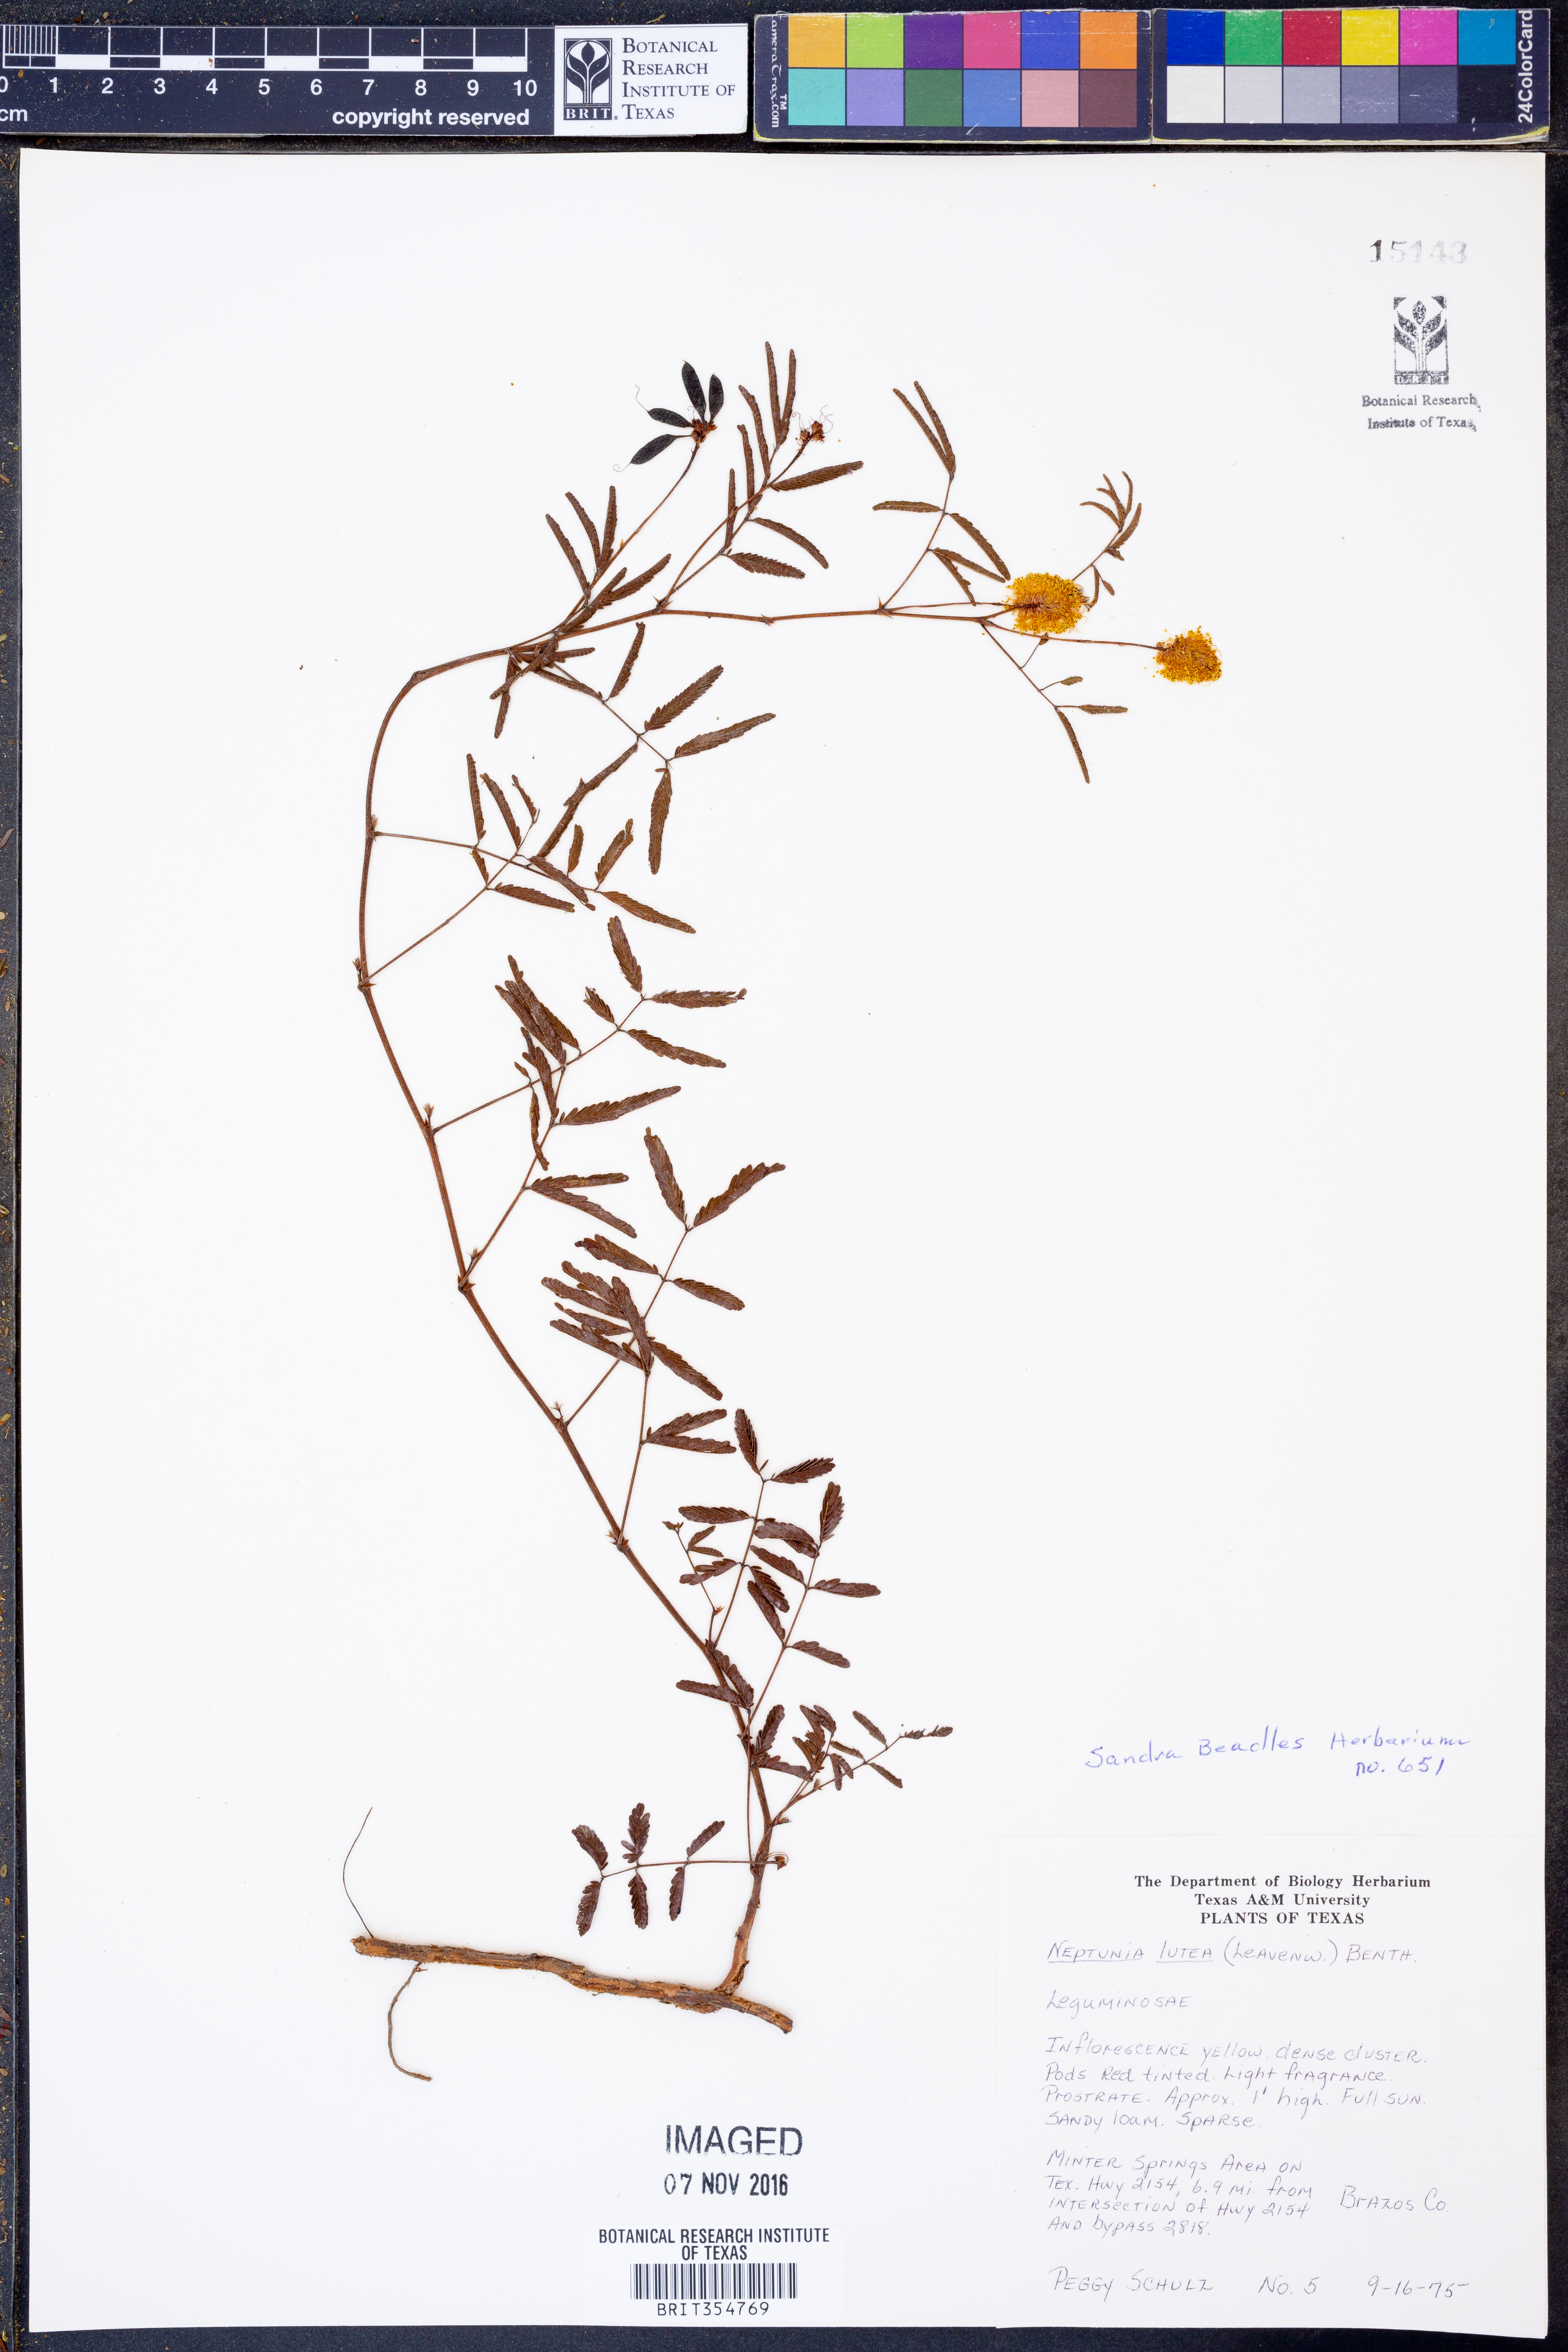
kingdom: Plantae
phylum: Tracheophyta
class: Magnoliopsida
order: Fabales
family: Fabaceae
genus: Neptunia
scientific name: Neptunia lutea
